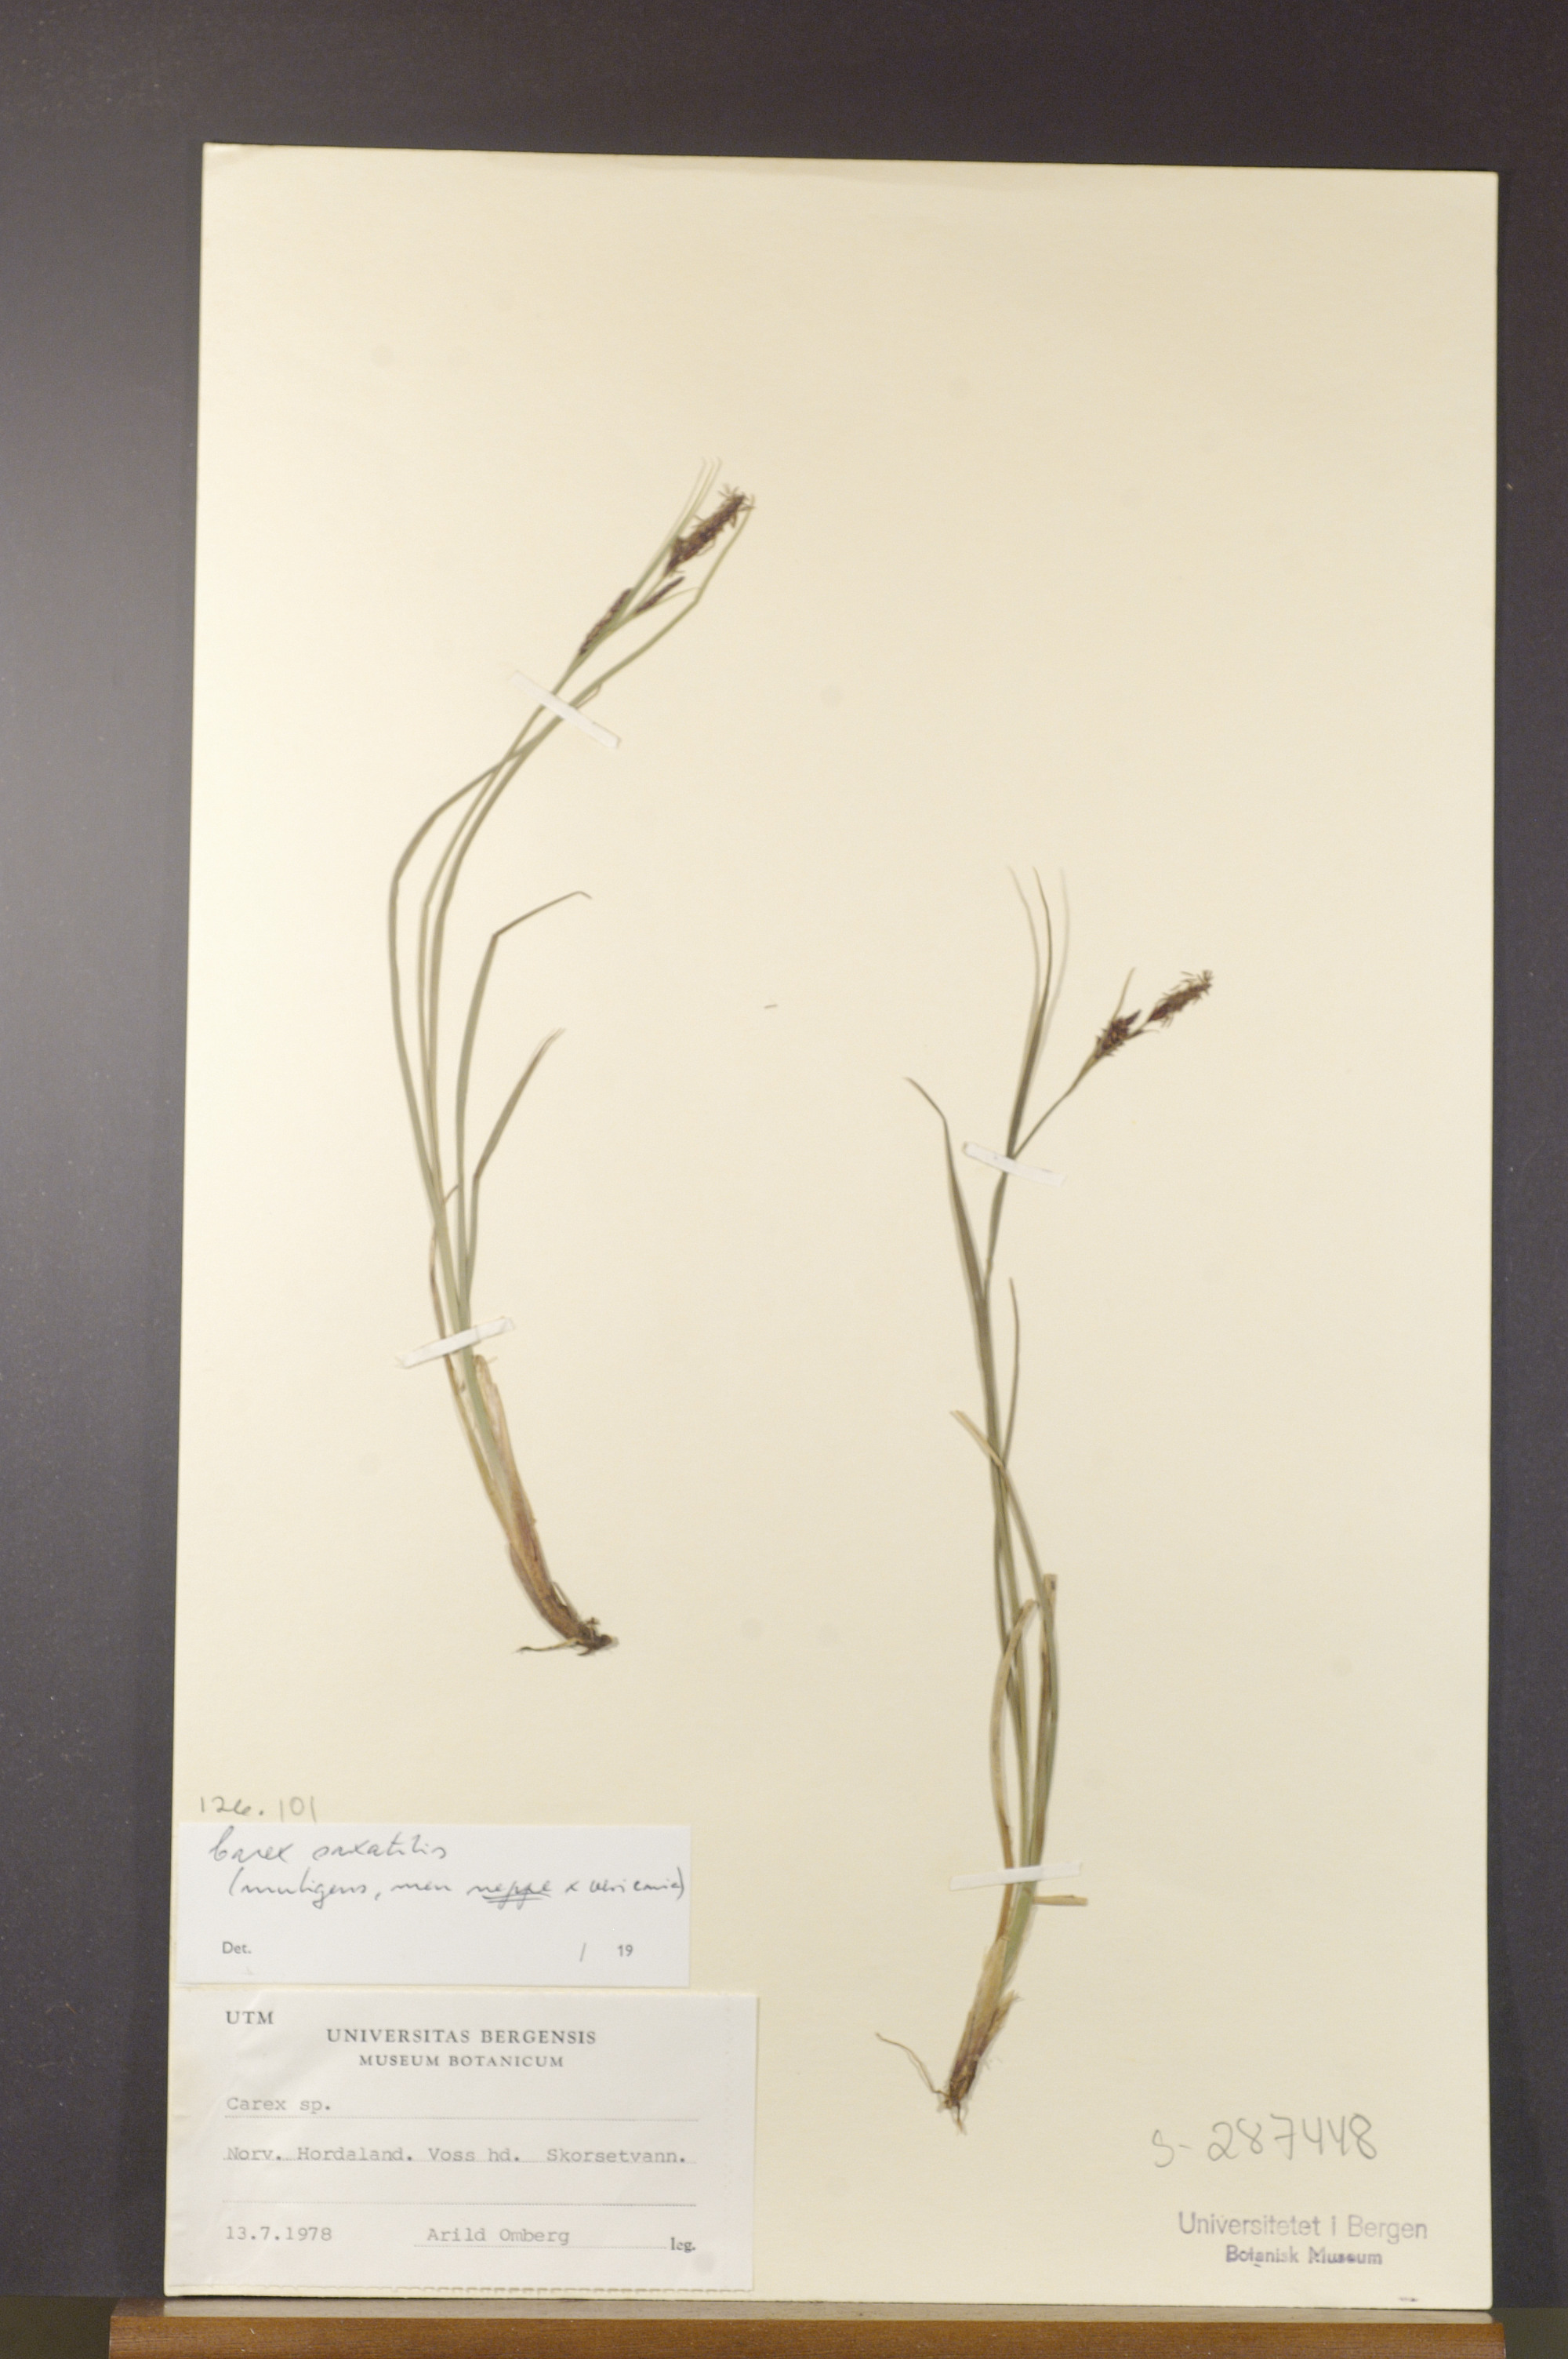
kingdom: Plantae
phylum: Tracheophyta
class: Liliopsida
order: Poales
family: Cyperaceae
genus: Carex
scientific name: Carex saxatilis
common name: Russet sedge
